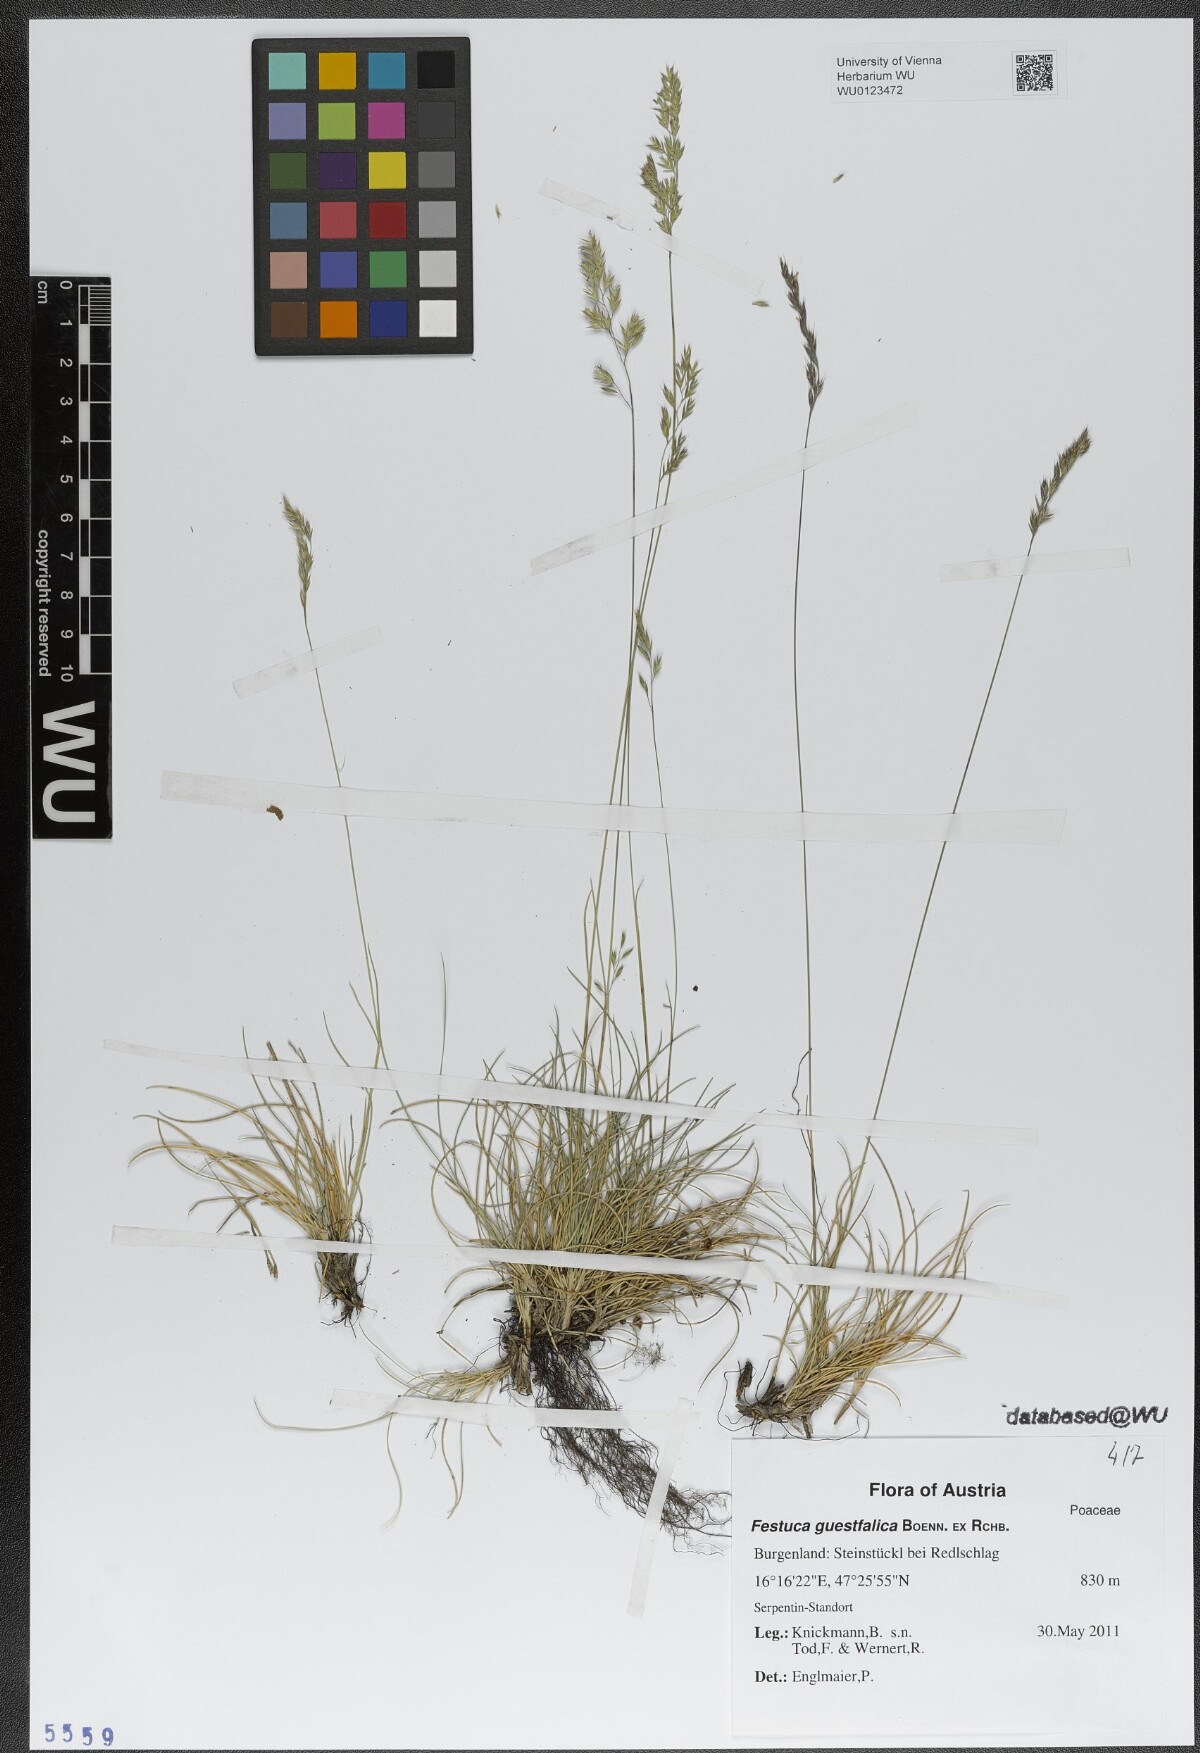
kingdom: Plantae
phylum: Tracheophyta
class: Liliopsida
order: Poales
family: Poaceae
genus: Festuca
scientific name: Festuca guestfalica
